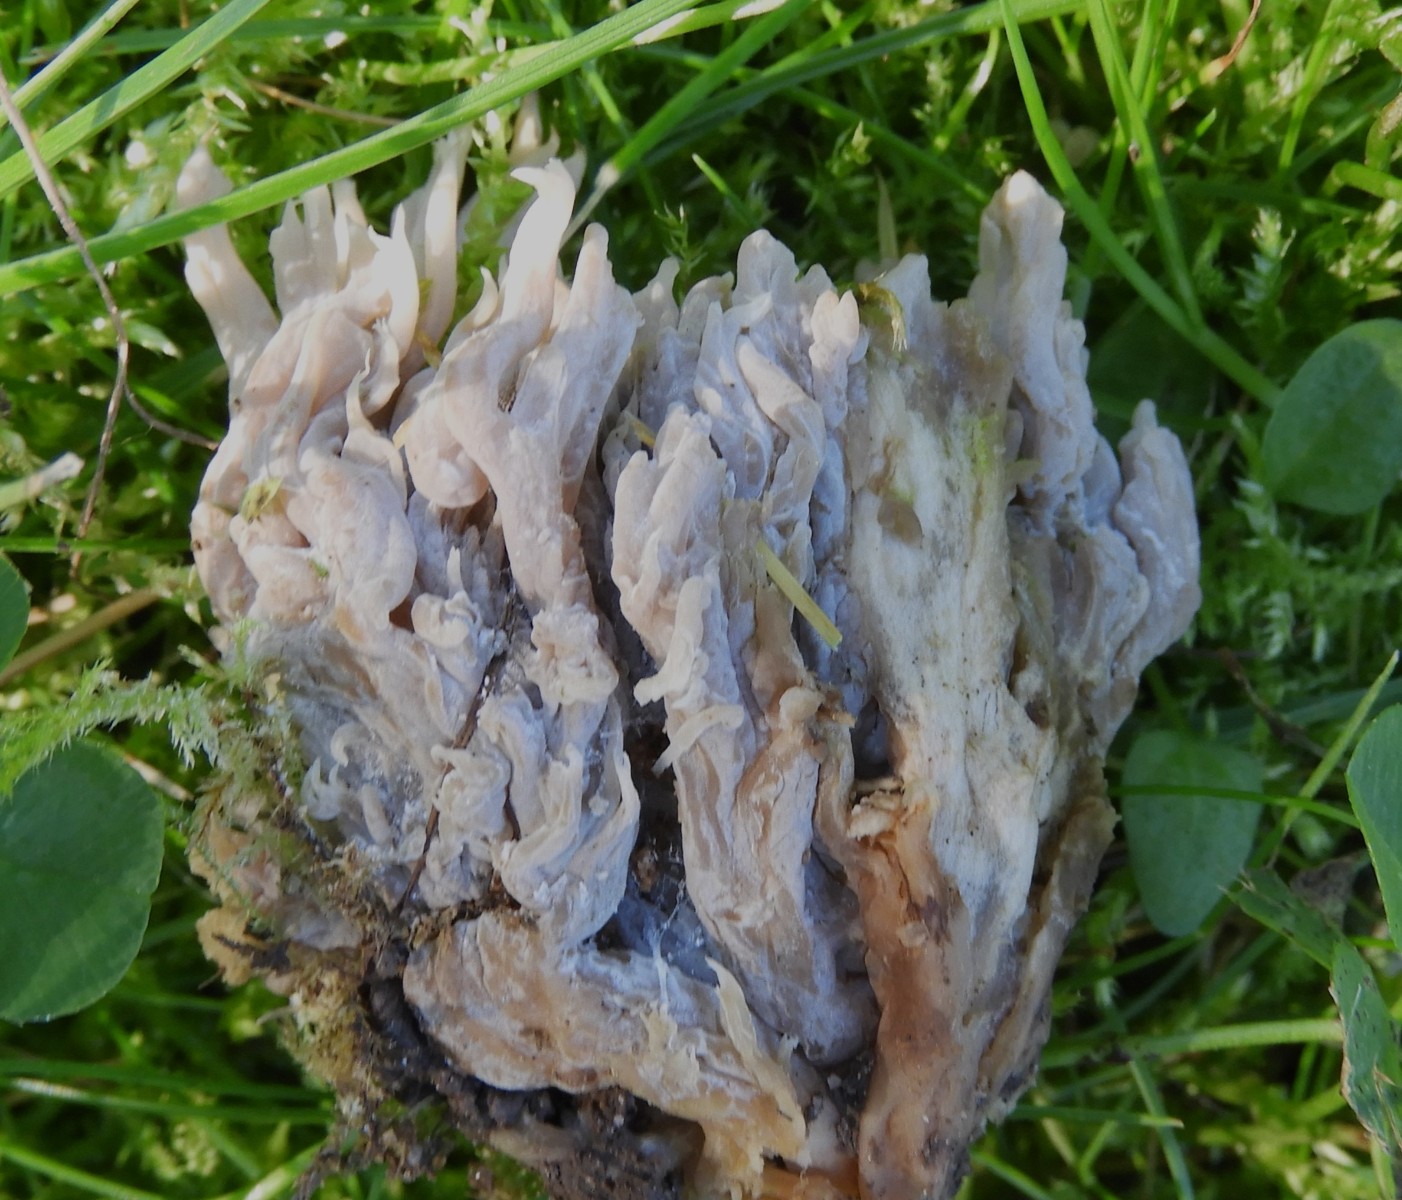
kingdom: Fungi
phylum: Basidiomycota
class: Agaricomycetes
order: Cantharellales
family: Hydnaceae
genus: Clavulina
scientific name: Clavulina
